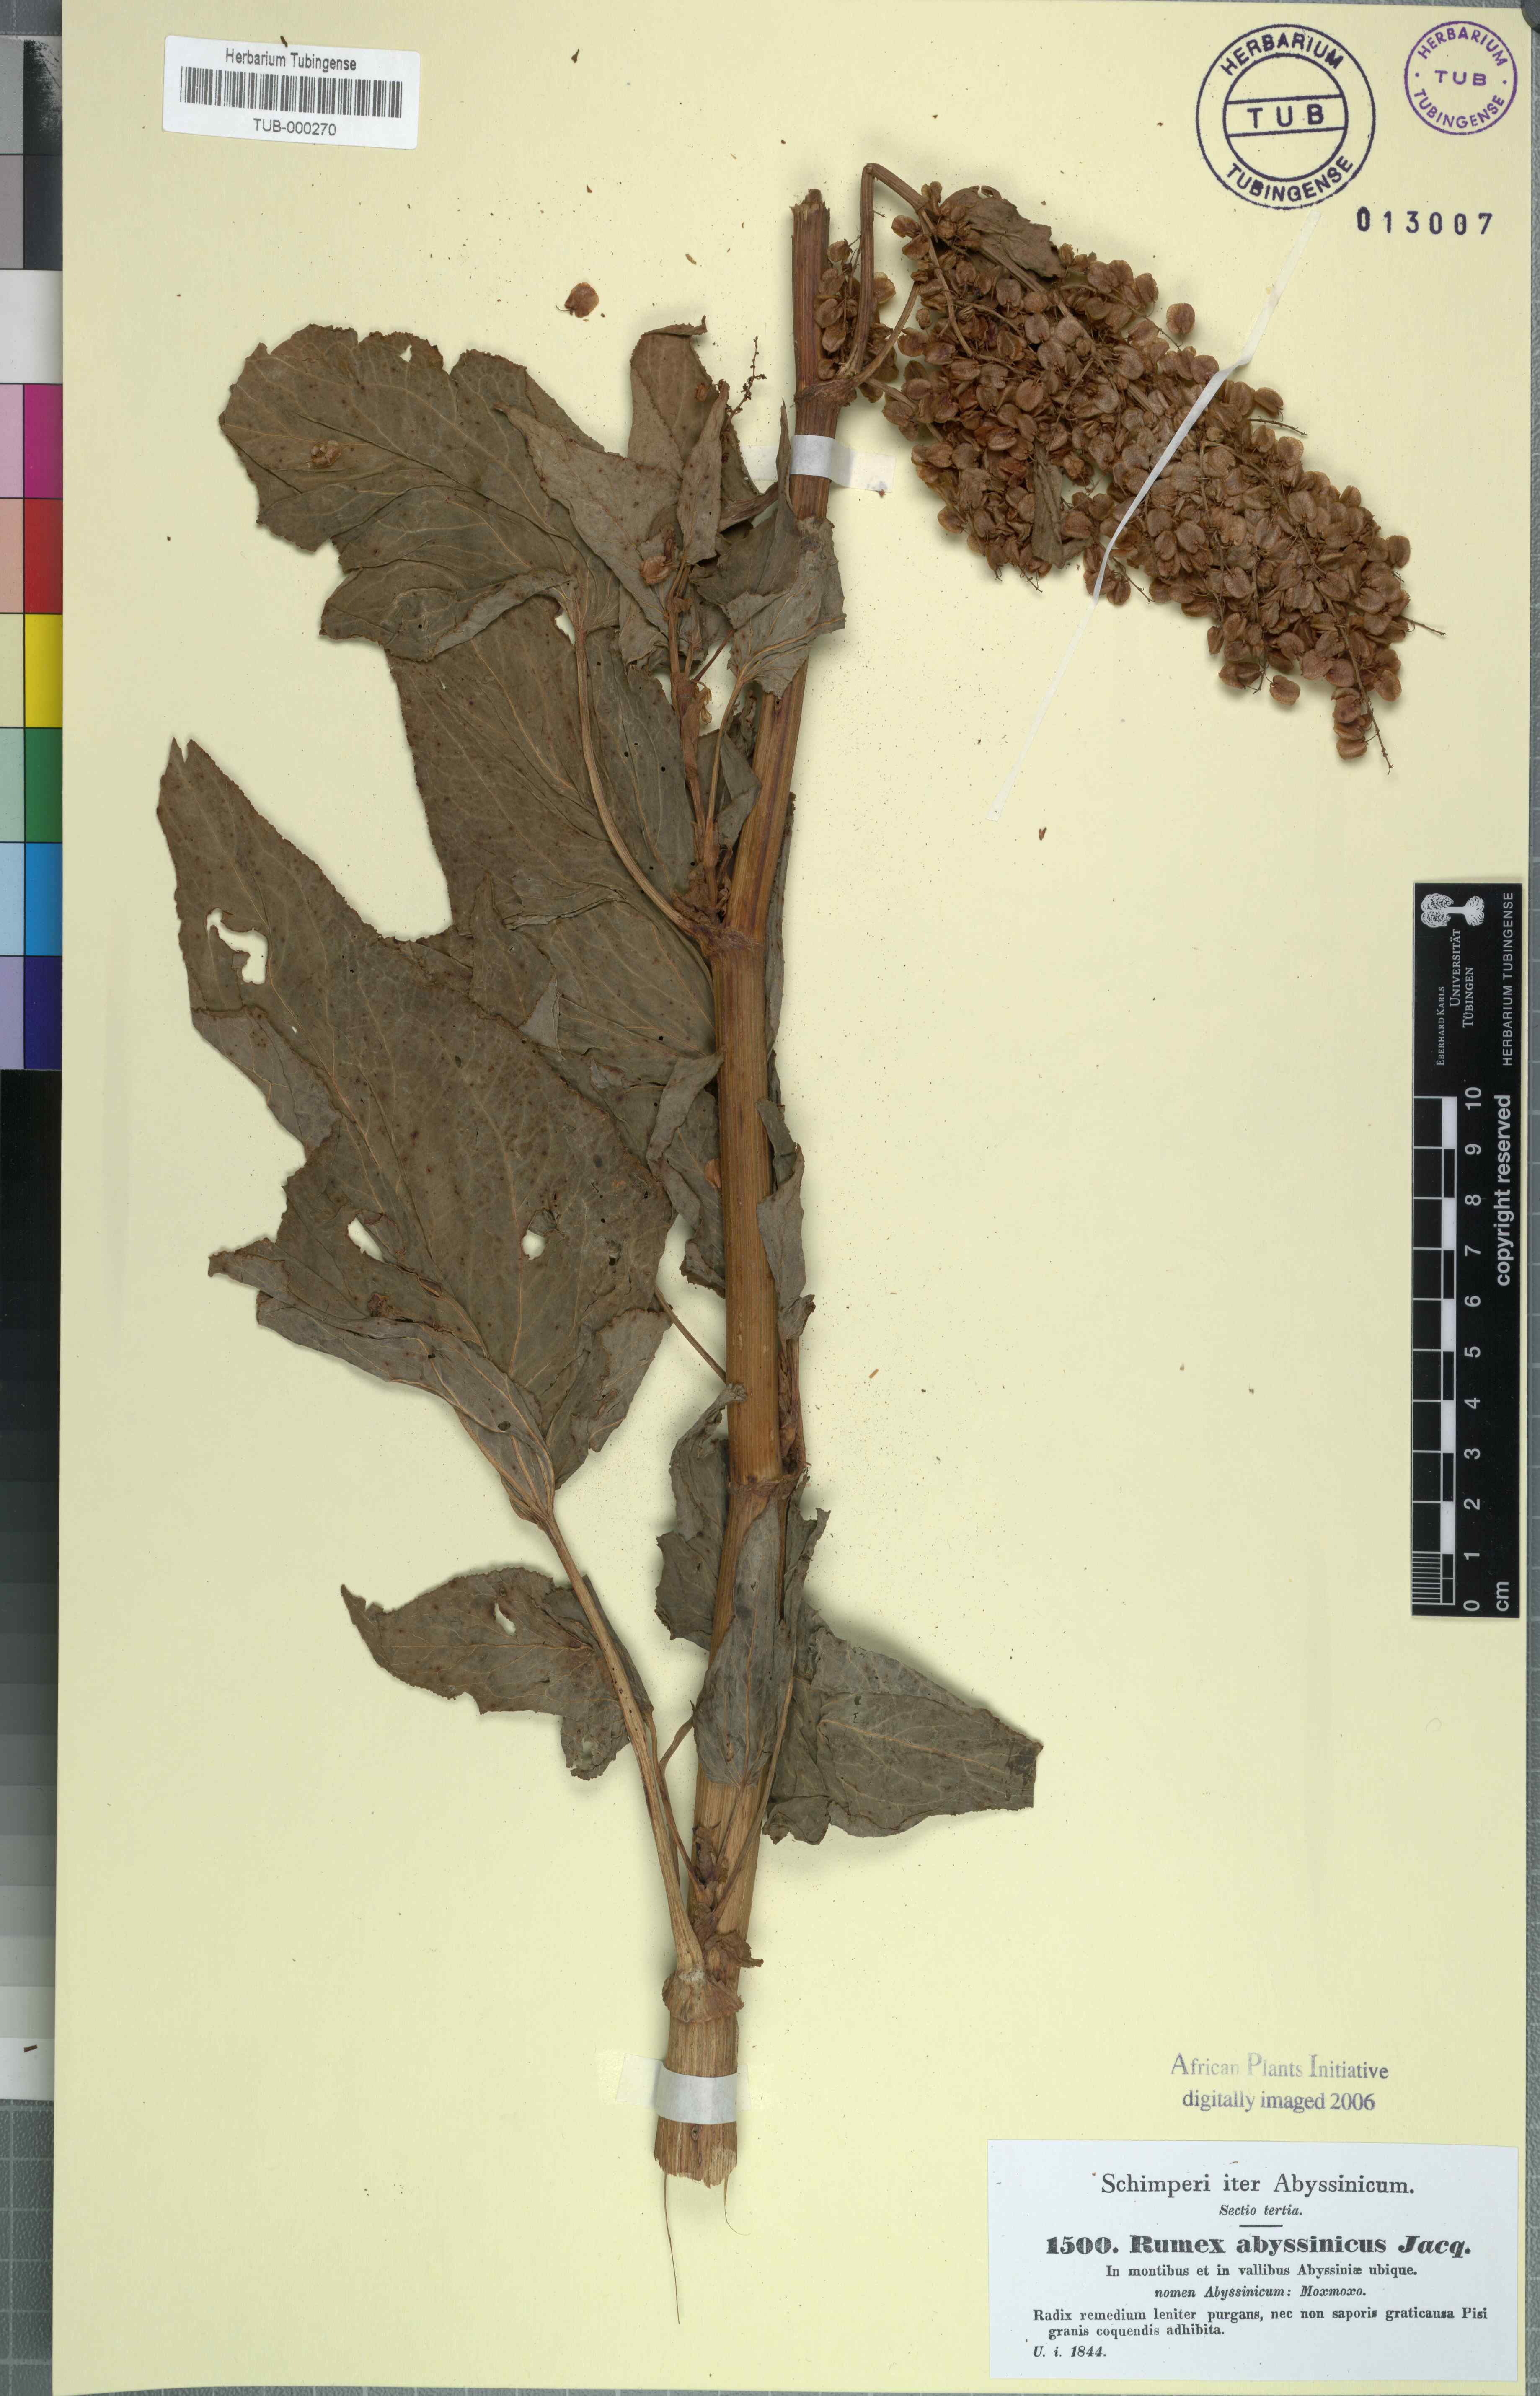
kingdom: Plantae
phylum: Tracheophyta
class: Magnoliopsida
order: Caryophyllales
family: Polygonaceae
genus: Rumex
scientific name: Rumex abyssinicus
